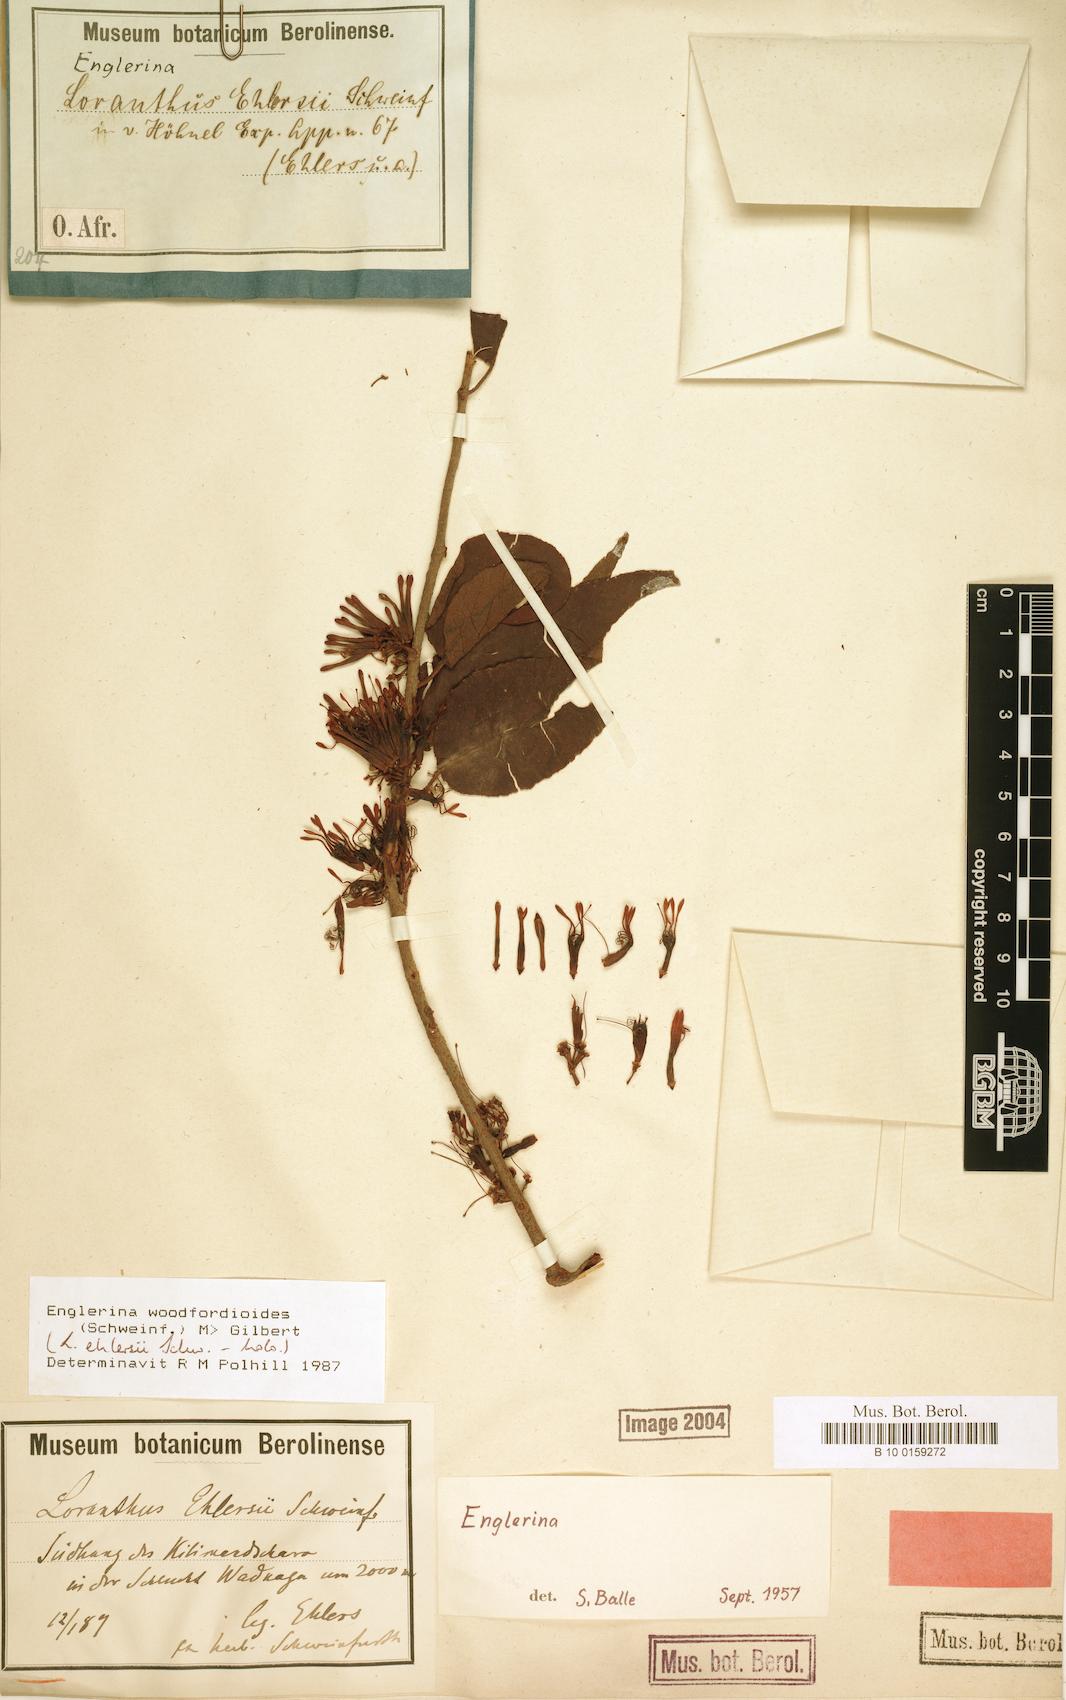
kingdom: Plantae
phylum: Tracheophyta
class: Magnoliopsida
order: Santalales
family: Loranthaceae
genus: Englerina
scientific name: Englerina woodfordioides
